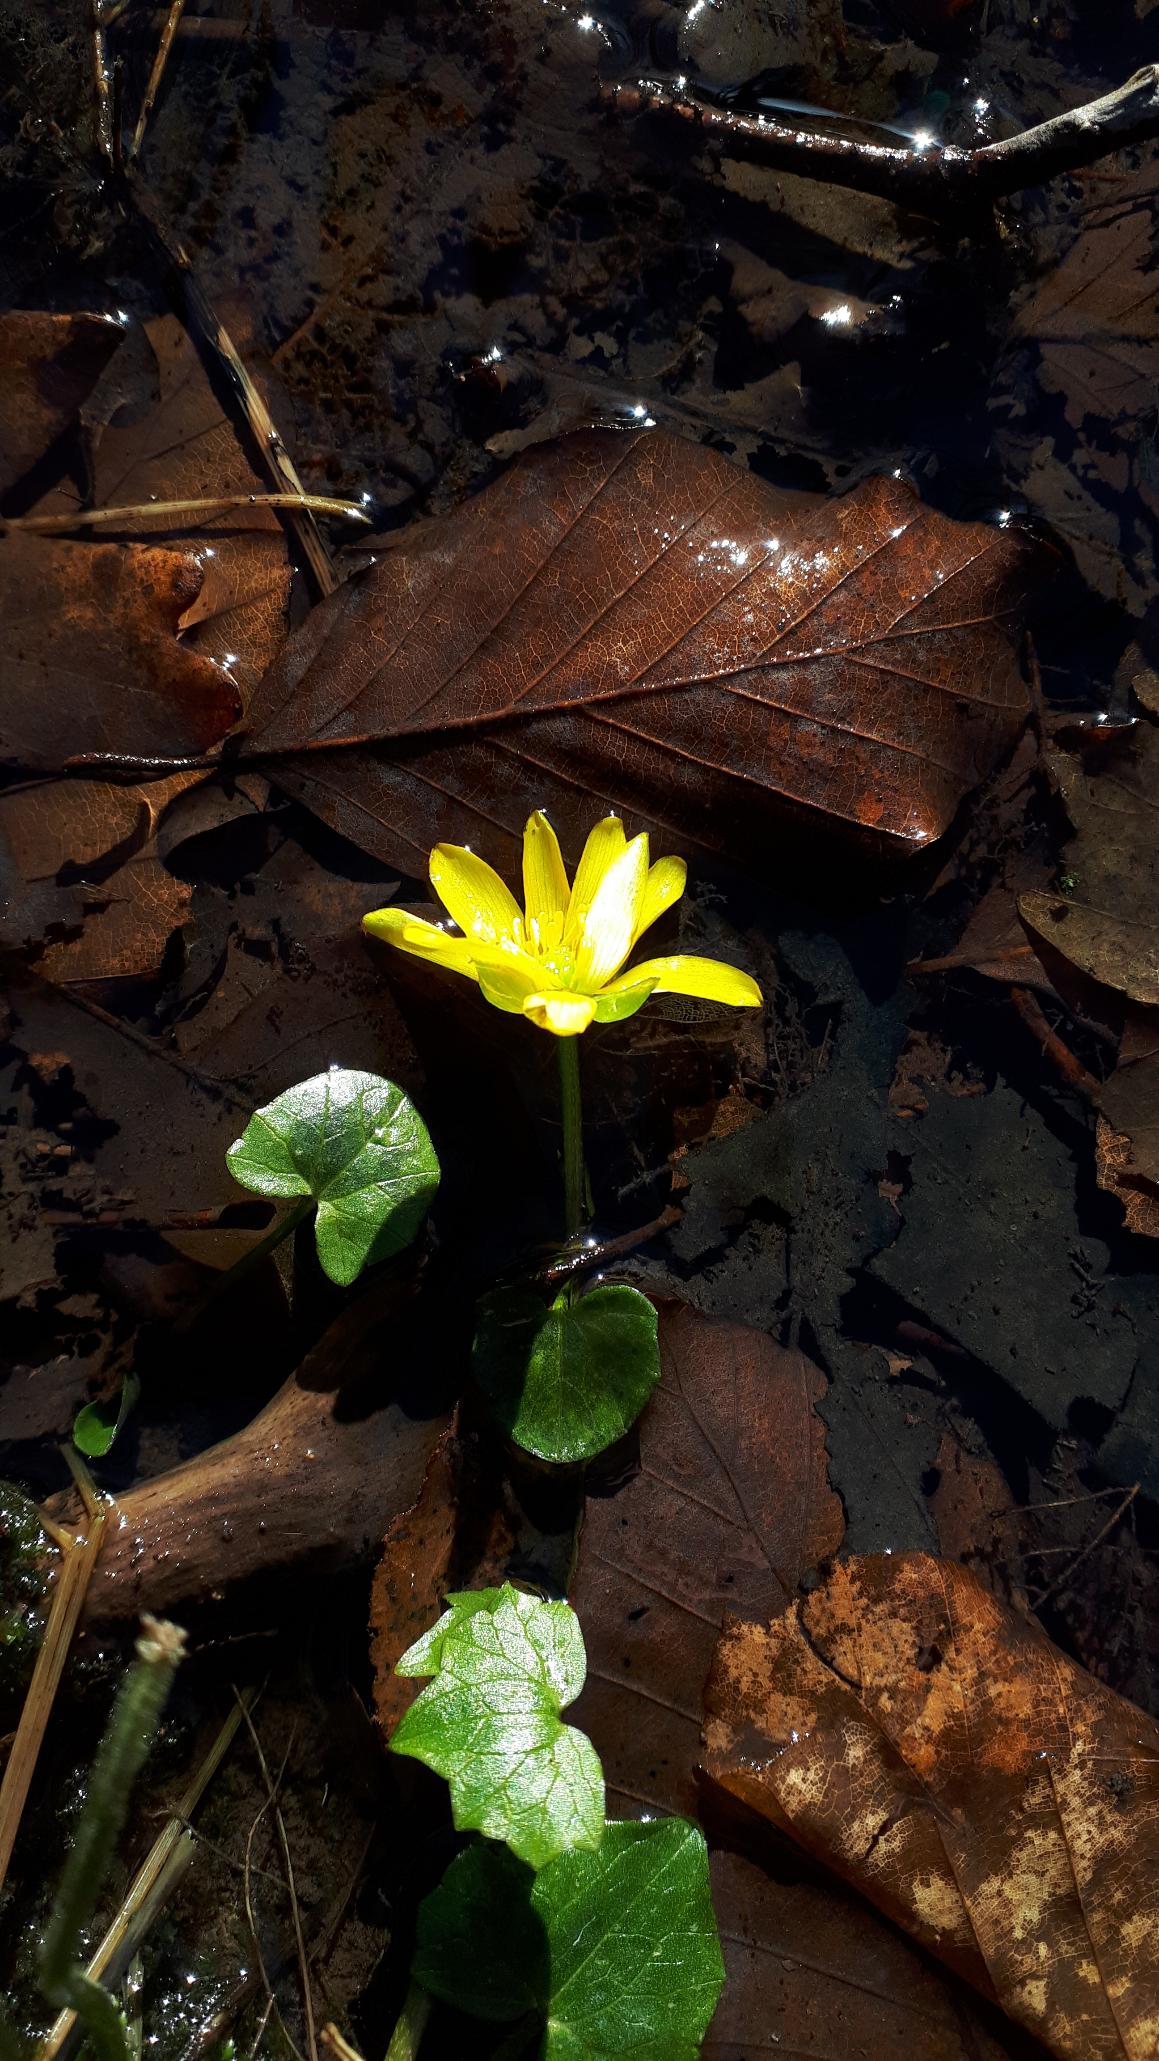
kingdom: Plantae
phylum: Tracheophyta
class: Magnoliopsida
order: Ranunculales
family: Ranunculaceae
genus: Ficaria
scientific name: Ficaria verna
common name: Vorterod
